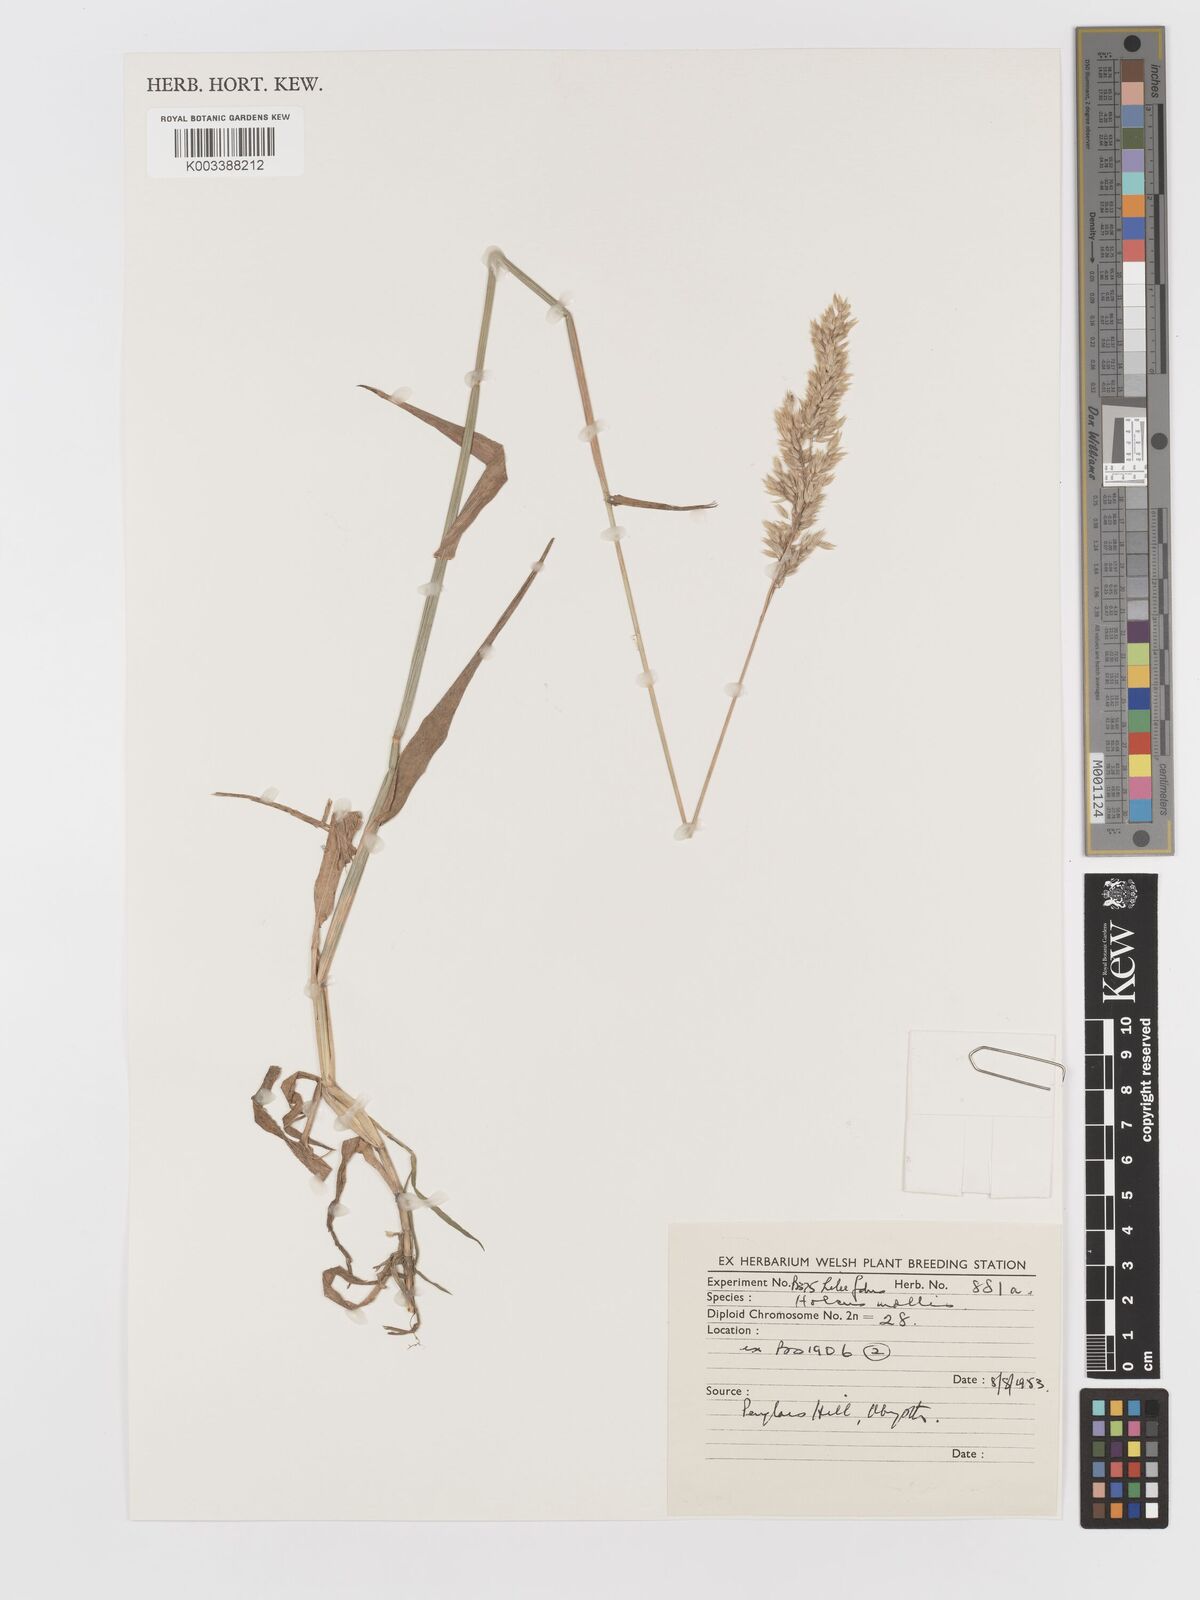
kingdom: Plantae
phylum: Tracheophyta
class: Liliopsida
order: Poales
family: Poaceae
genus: Holcus
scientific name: Holcus mollis
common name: Creeping velvetgrass
